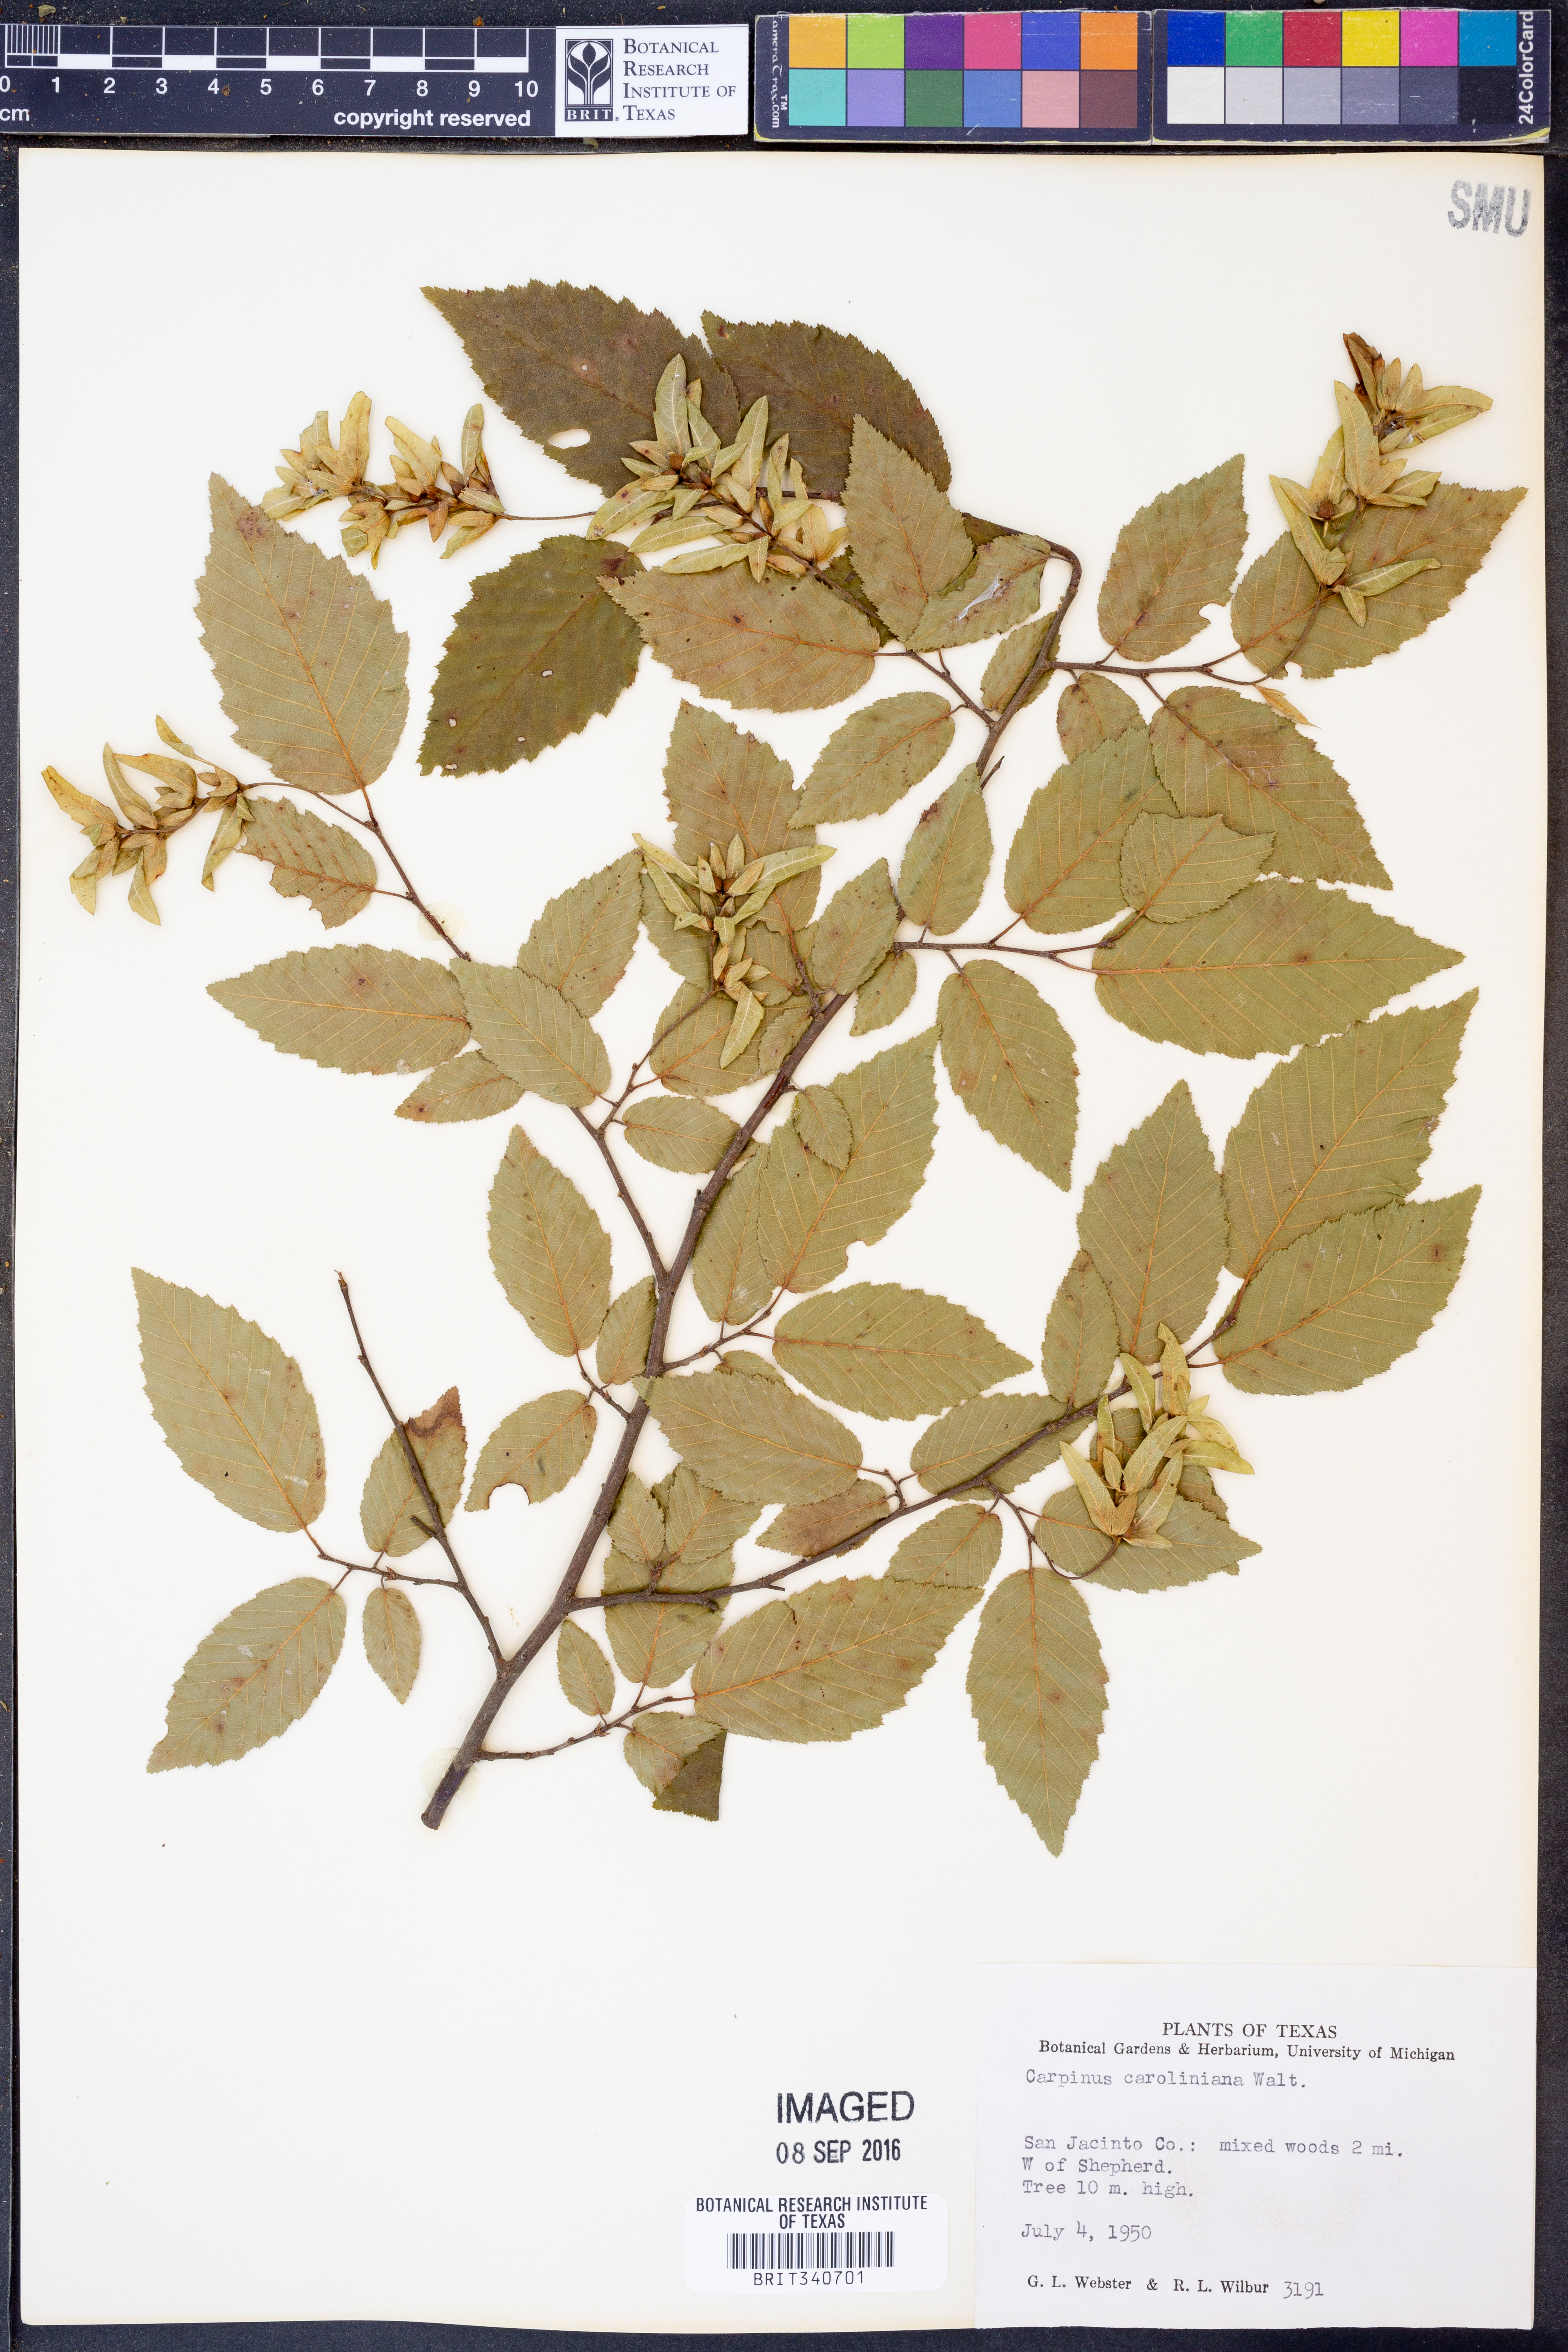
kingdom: Plantae
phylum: Tracheophyta
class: Magnoliopsida
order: Fagales
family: Betulaceae
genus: Carpinus
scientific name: Carpinus caroliniana
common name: American hornbeam
